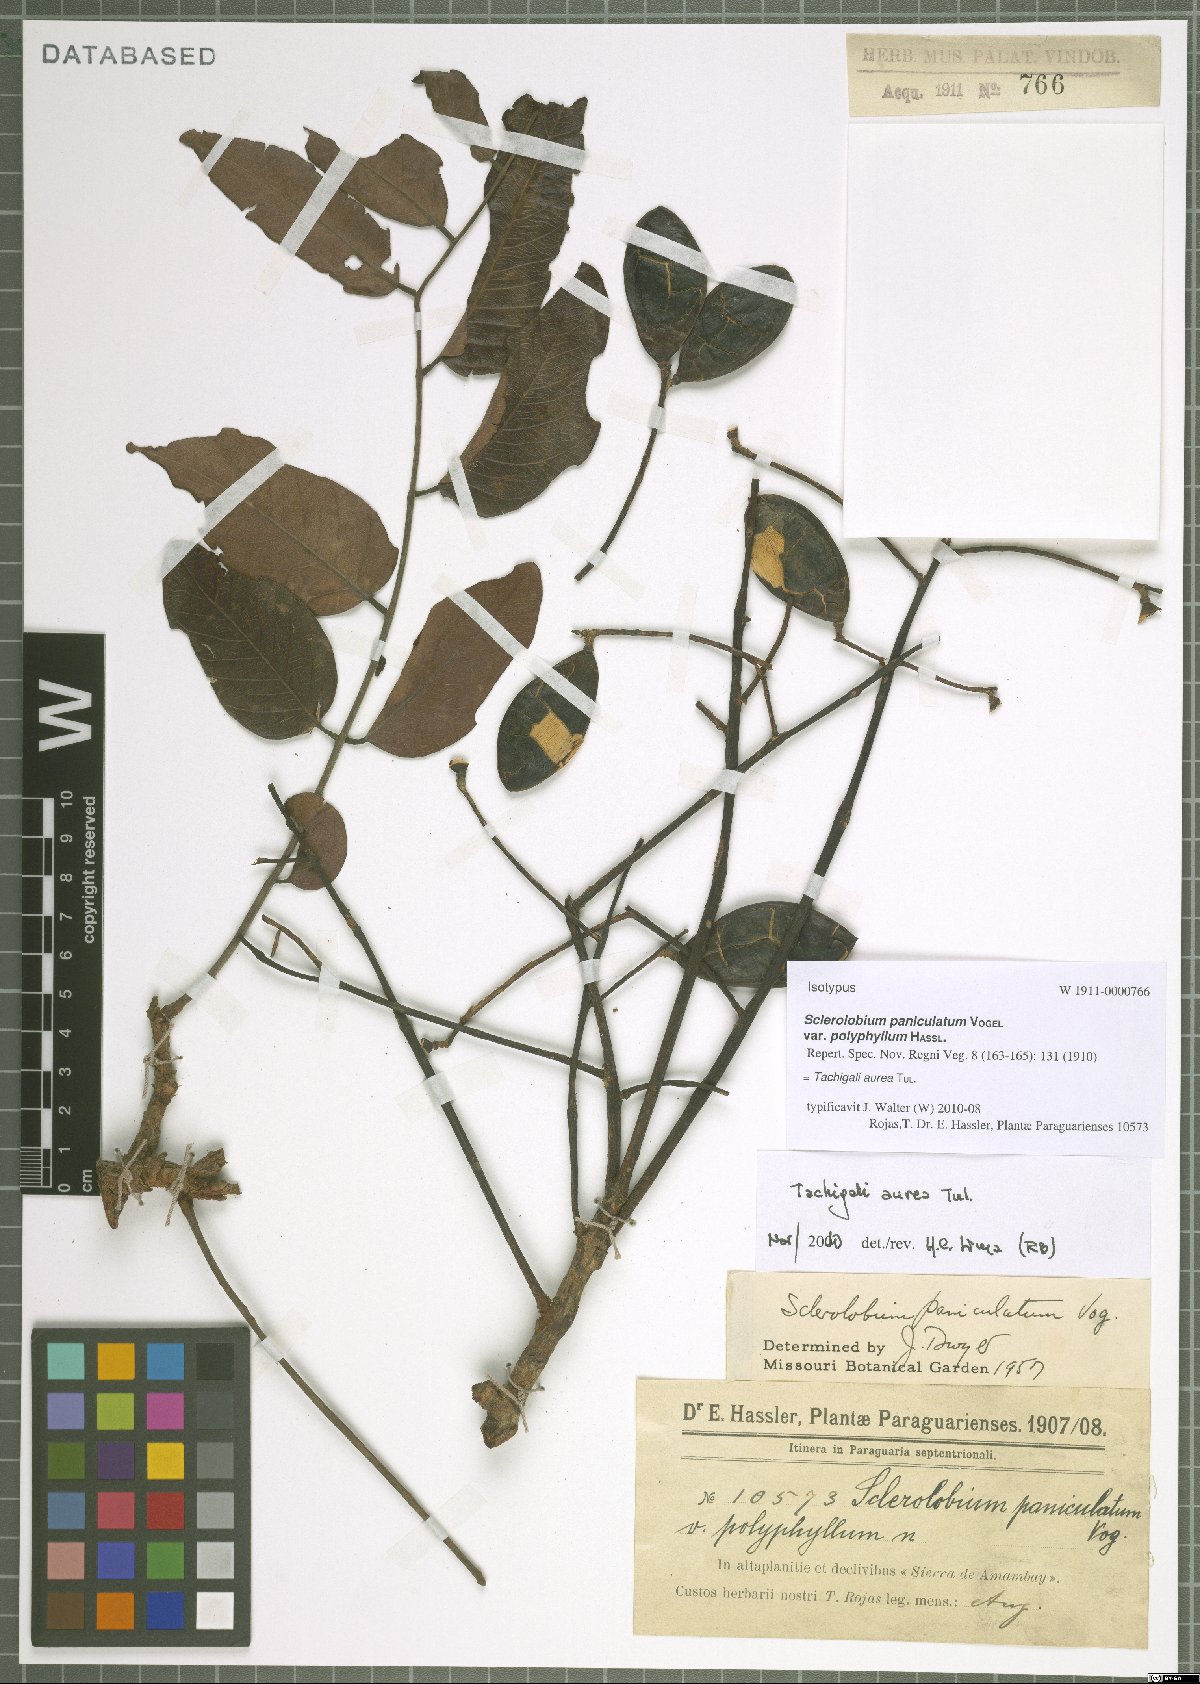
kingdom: Plantae
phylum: Tracheophyta
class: Magnoliopsida
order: Fabales
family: Fabaceae
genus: Tachigali
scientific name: Tachigali aurea
